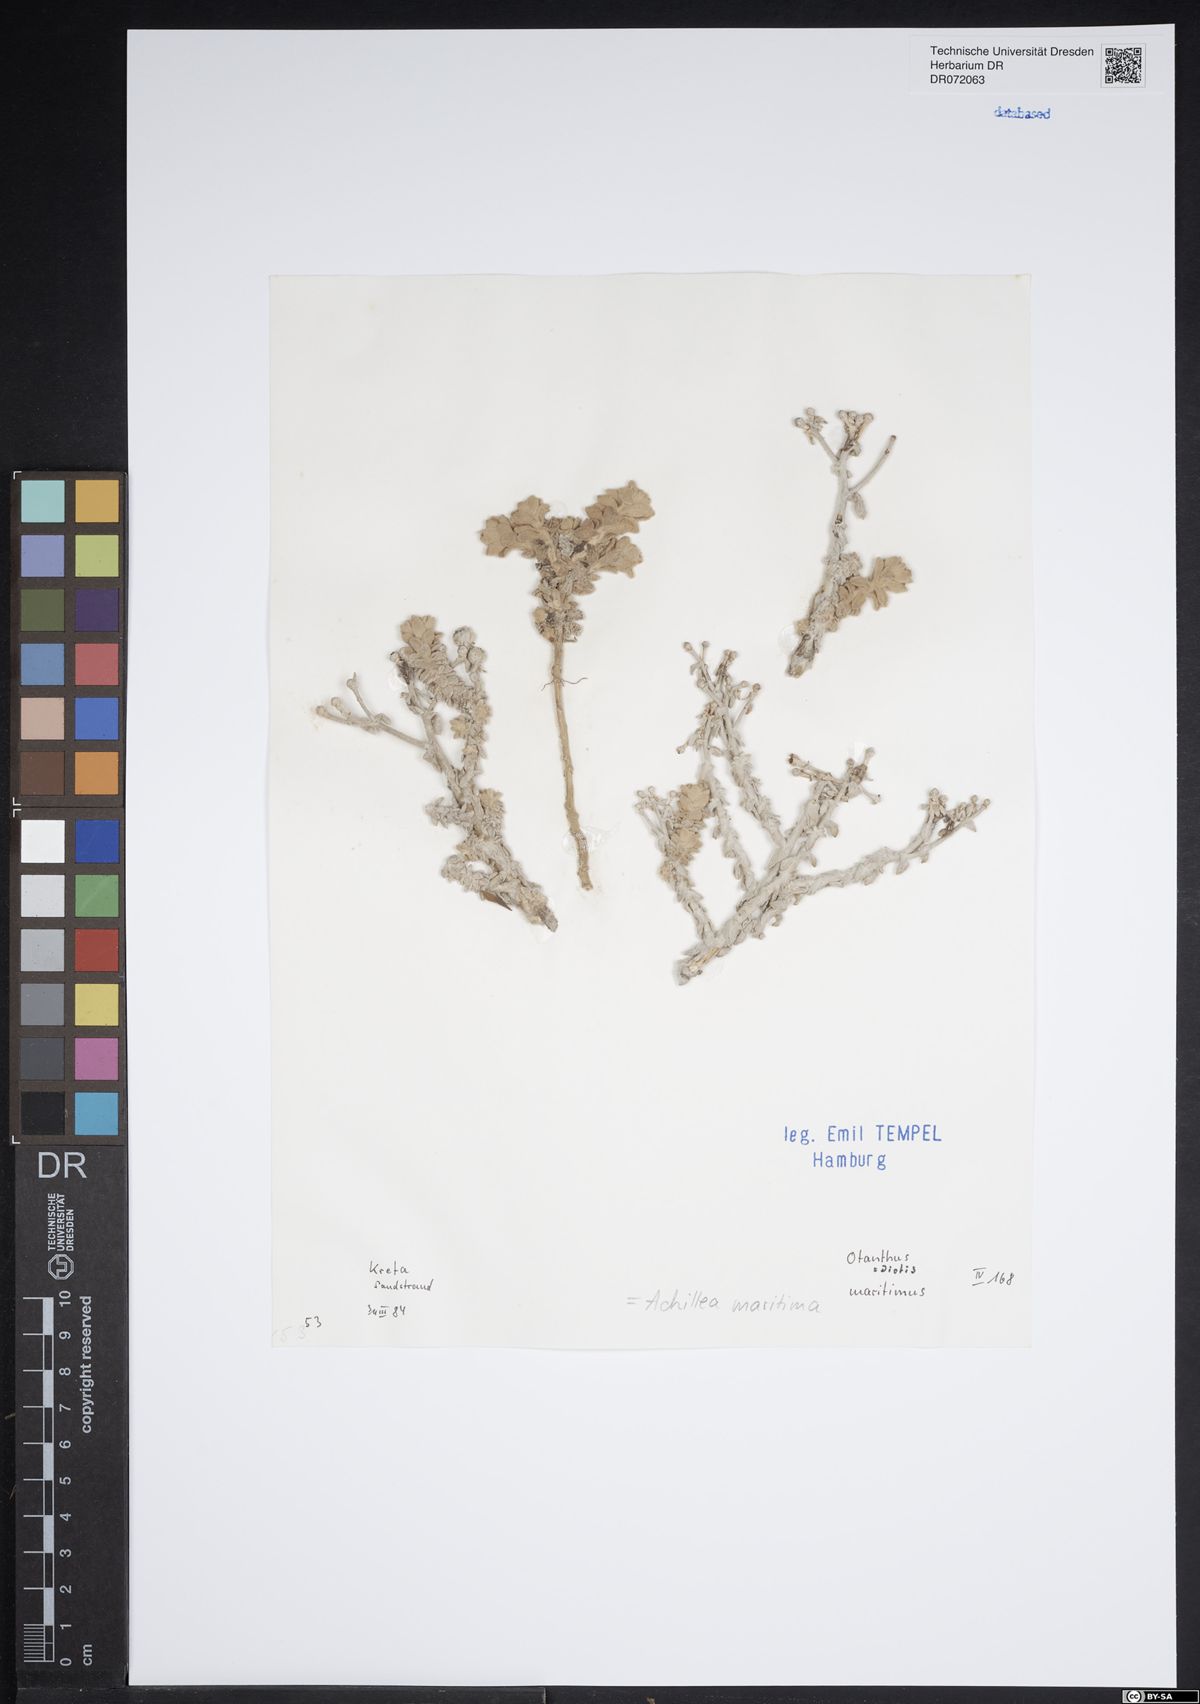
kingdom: Plantae
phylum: Tracheophyta
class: Magnoliopsida
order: Asterales
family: Asteraceae
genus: Achillea
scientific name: Achillea maritima
